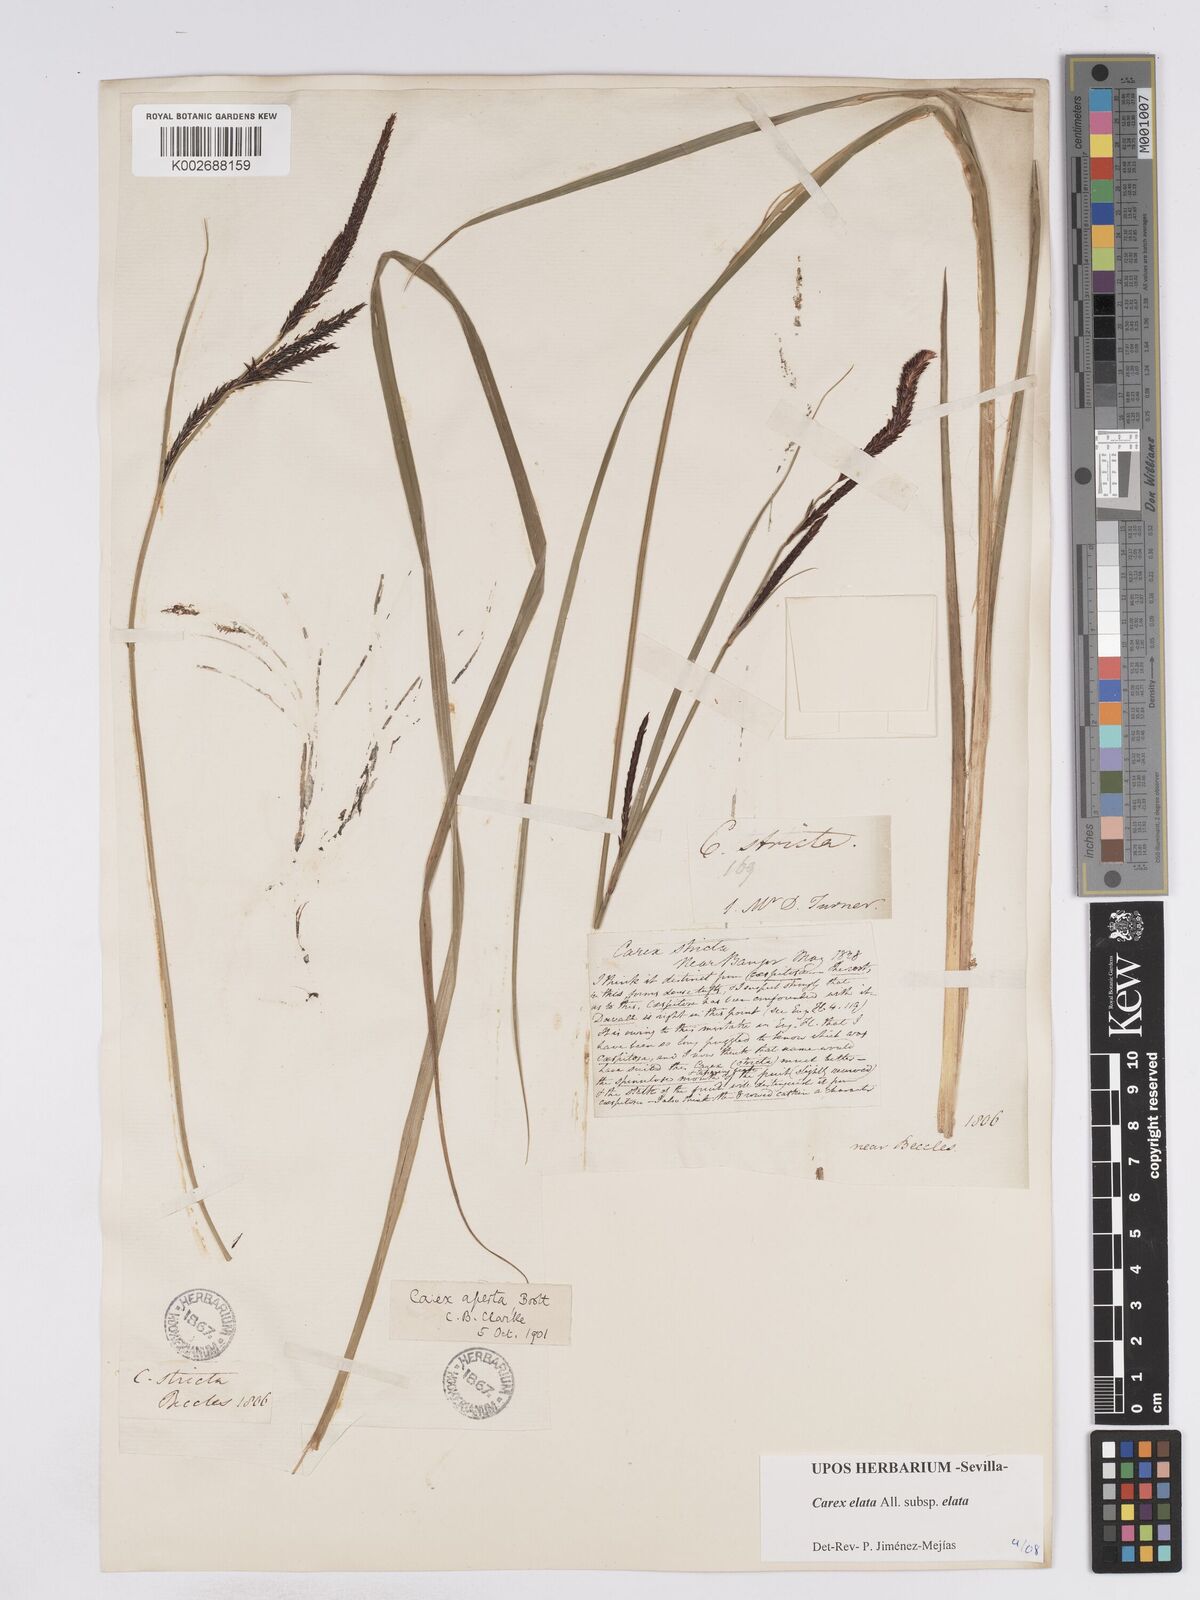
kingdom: Plantae
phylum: Tracheophyta
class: Liliopsida
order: Poales
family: Cyperaceae
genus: Carex
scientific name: Carex elata
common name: Tufted sedge
